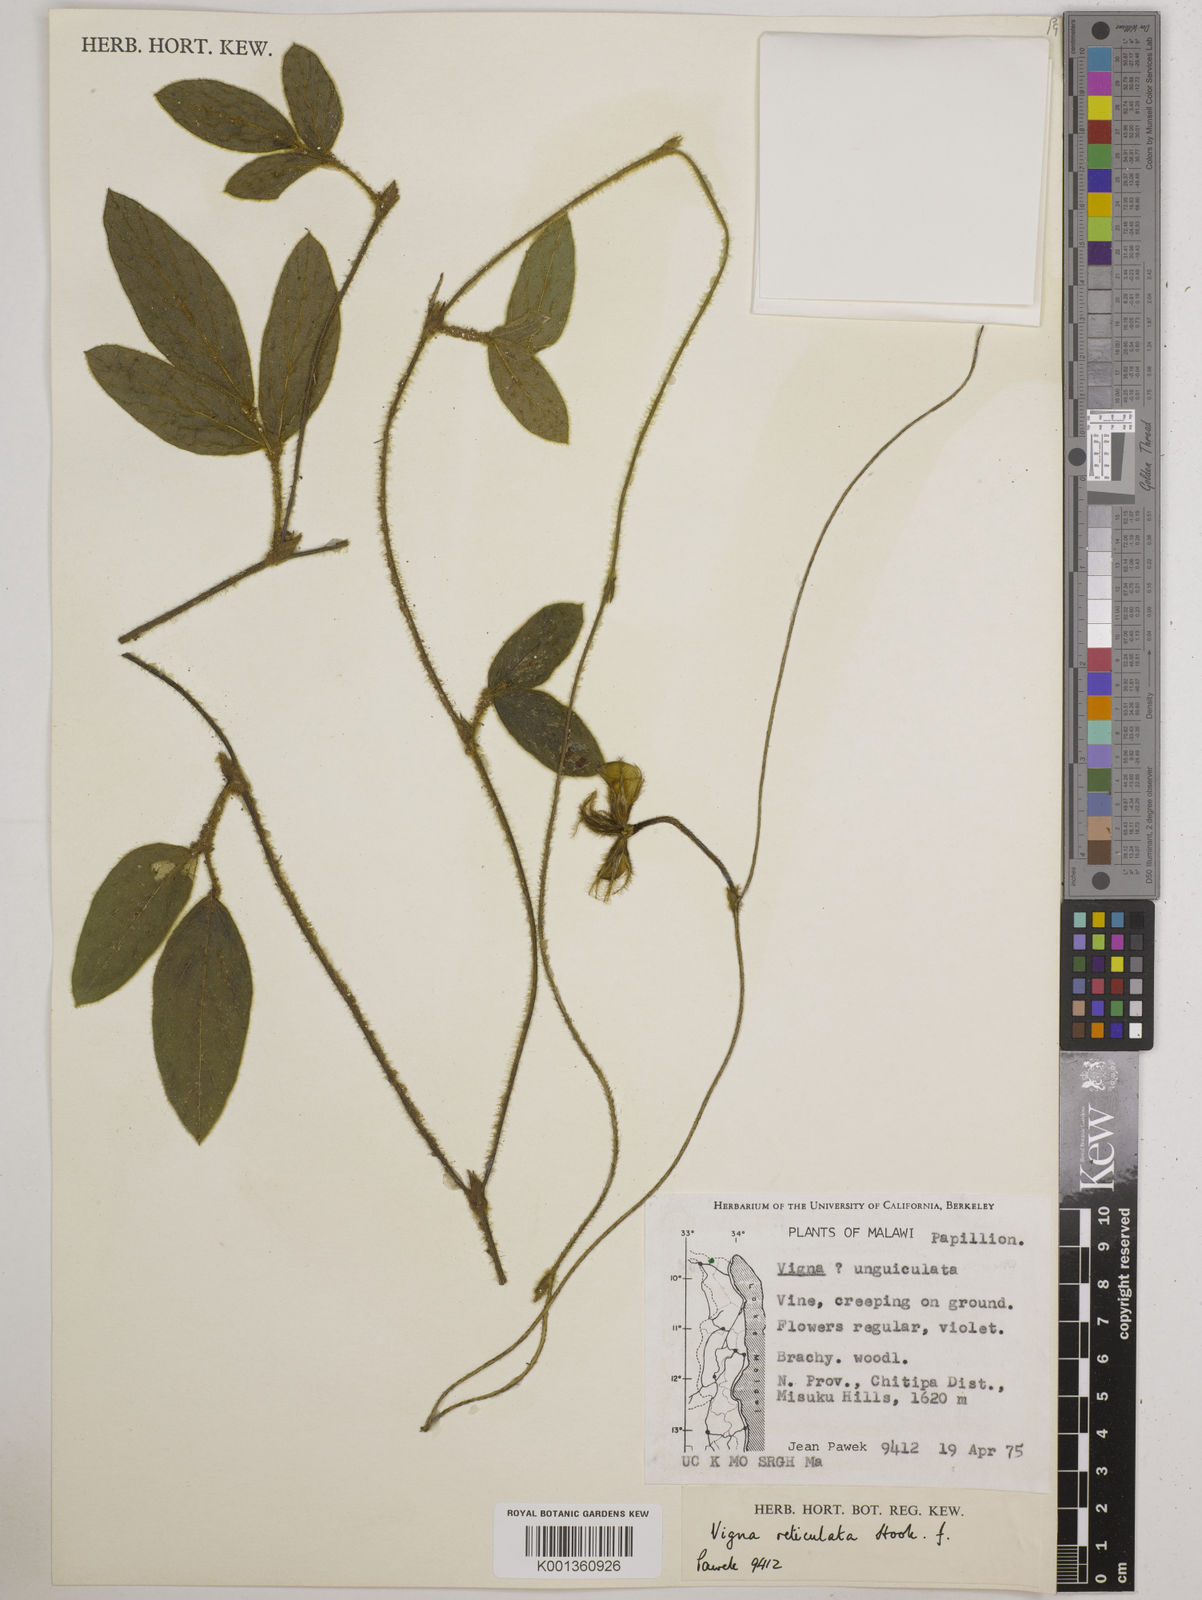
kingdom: Plantae
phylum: Tracheophyta
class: Magnoliopsida
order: Fabales
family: Fabaceae
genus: Vigna
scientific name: Vigna reticulata
